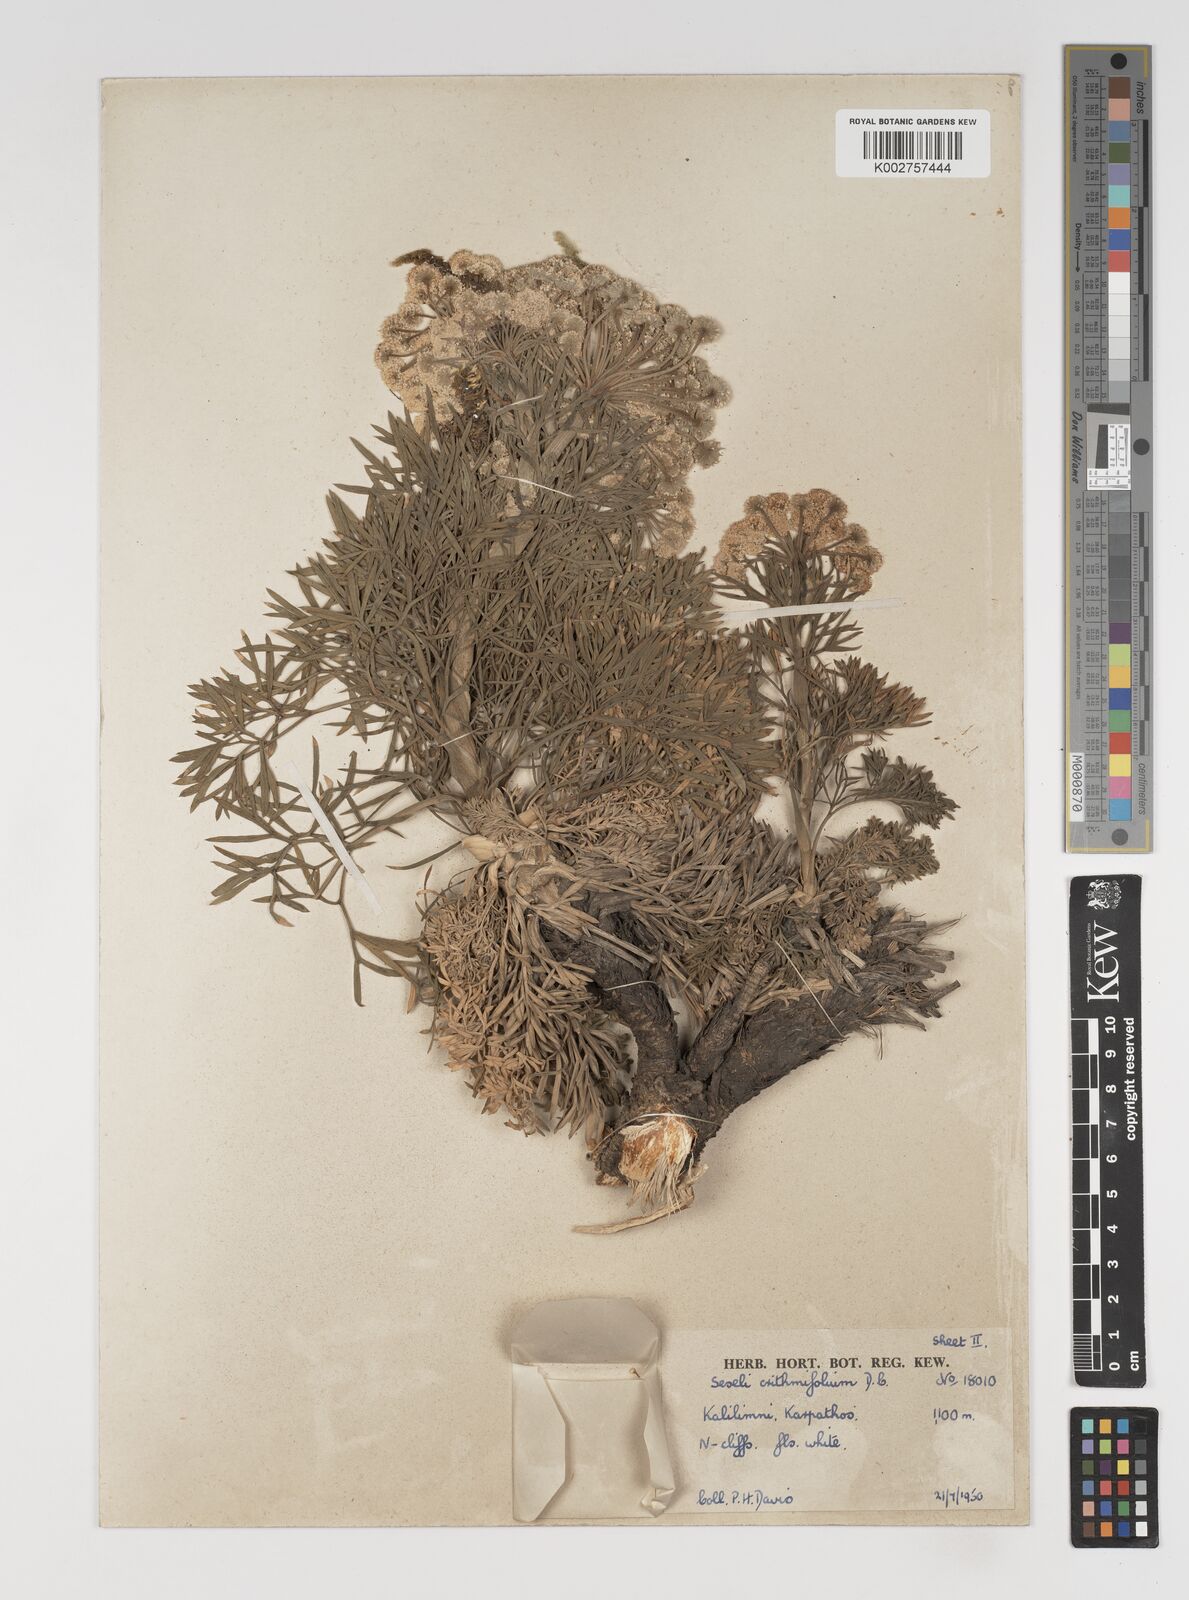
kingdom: Plantae
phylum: Tracheophyta
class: Magnoliopsida
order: Apiales
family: Apiaceae
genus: Seseli
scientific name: Seseli crithmifolium
